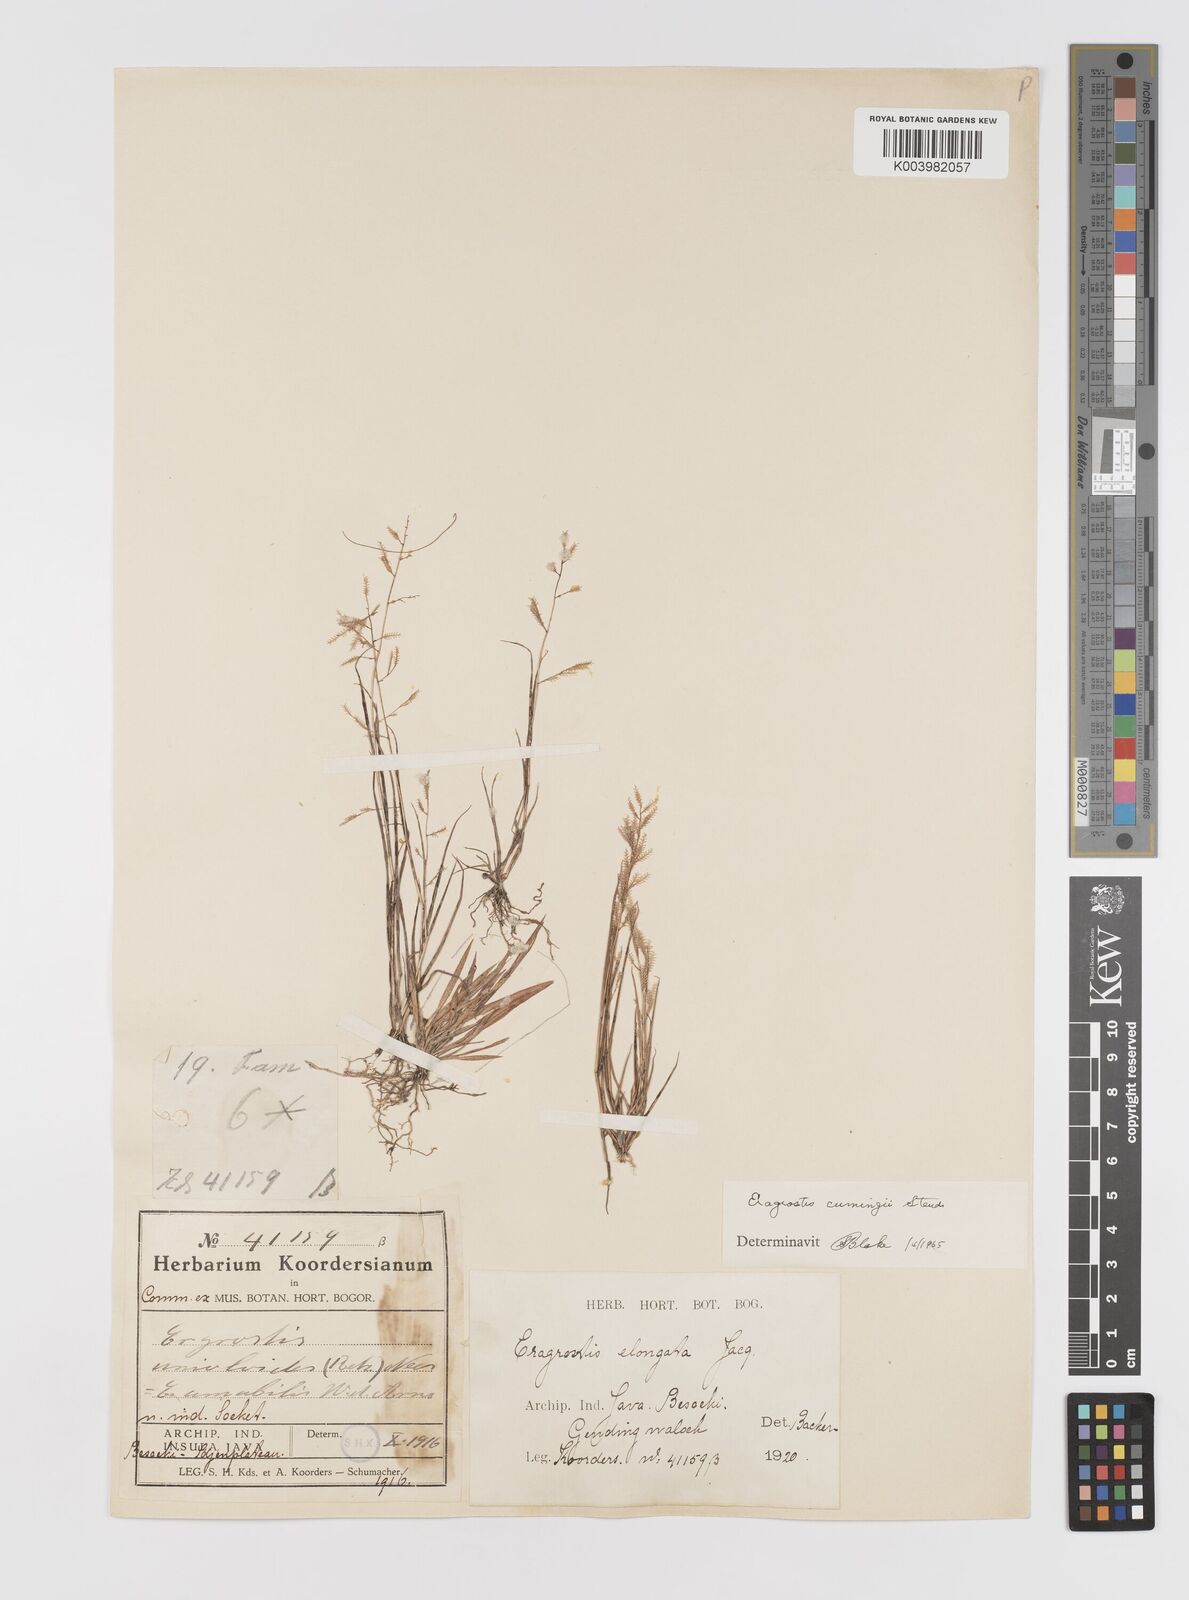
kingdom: Plantae
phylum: Tracheophyta
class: Liliopsida
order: Poales
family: Poaceae
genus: Eragrostis
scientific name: Eragrostis cumingii
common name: Cuming's lovegrass
